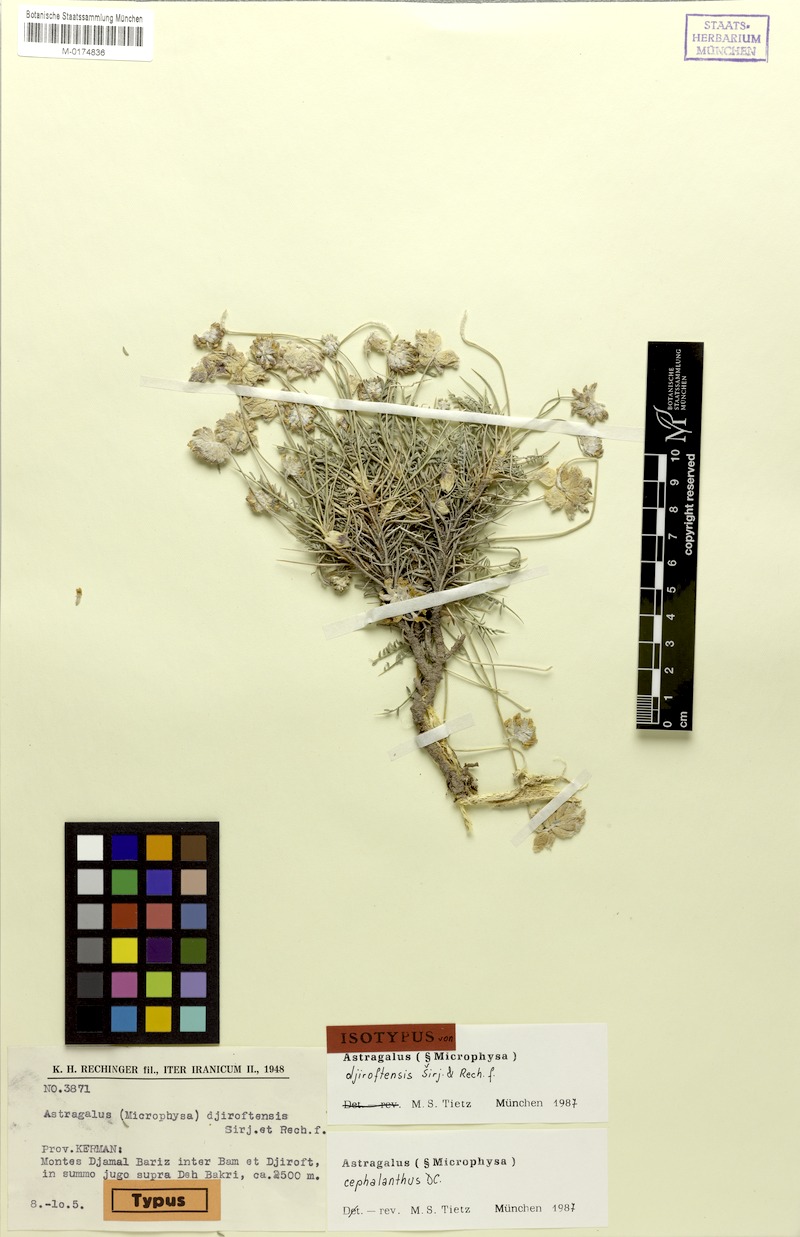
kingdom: Plantae
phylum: Tracheophyta
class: Magnoliopsida
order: Fabales
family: Fabaceae
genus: Astragalus
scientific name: Astragalus cephalanthus
